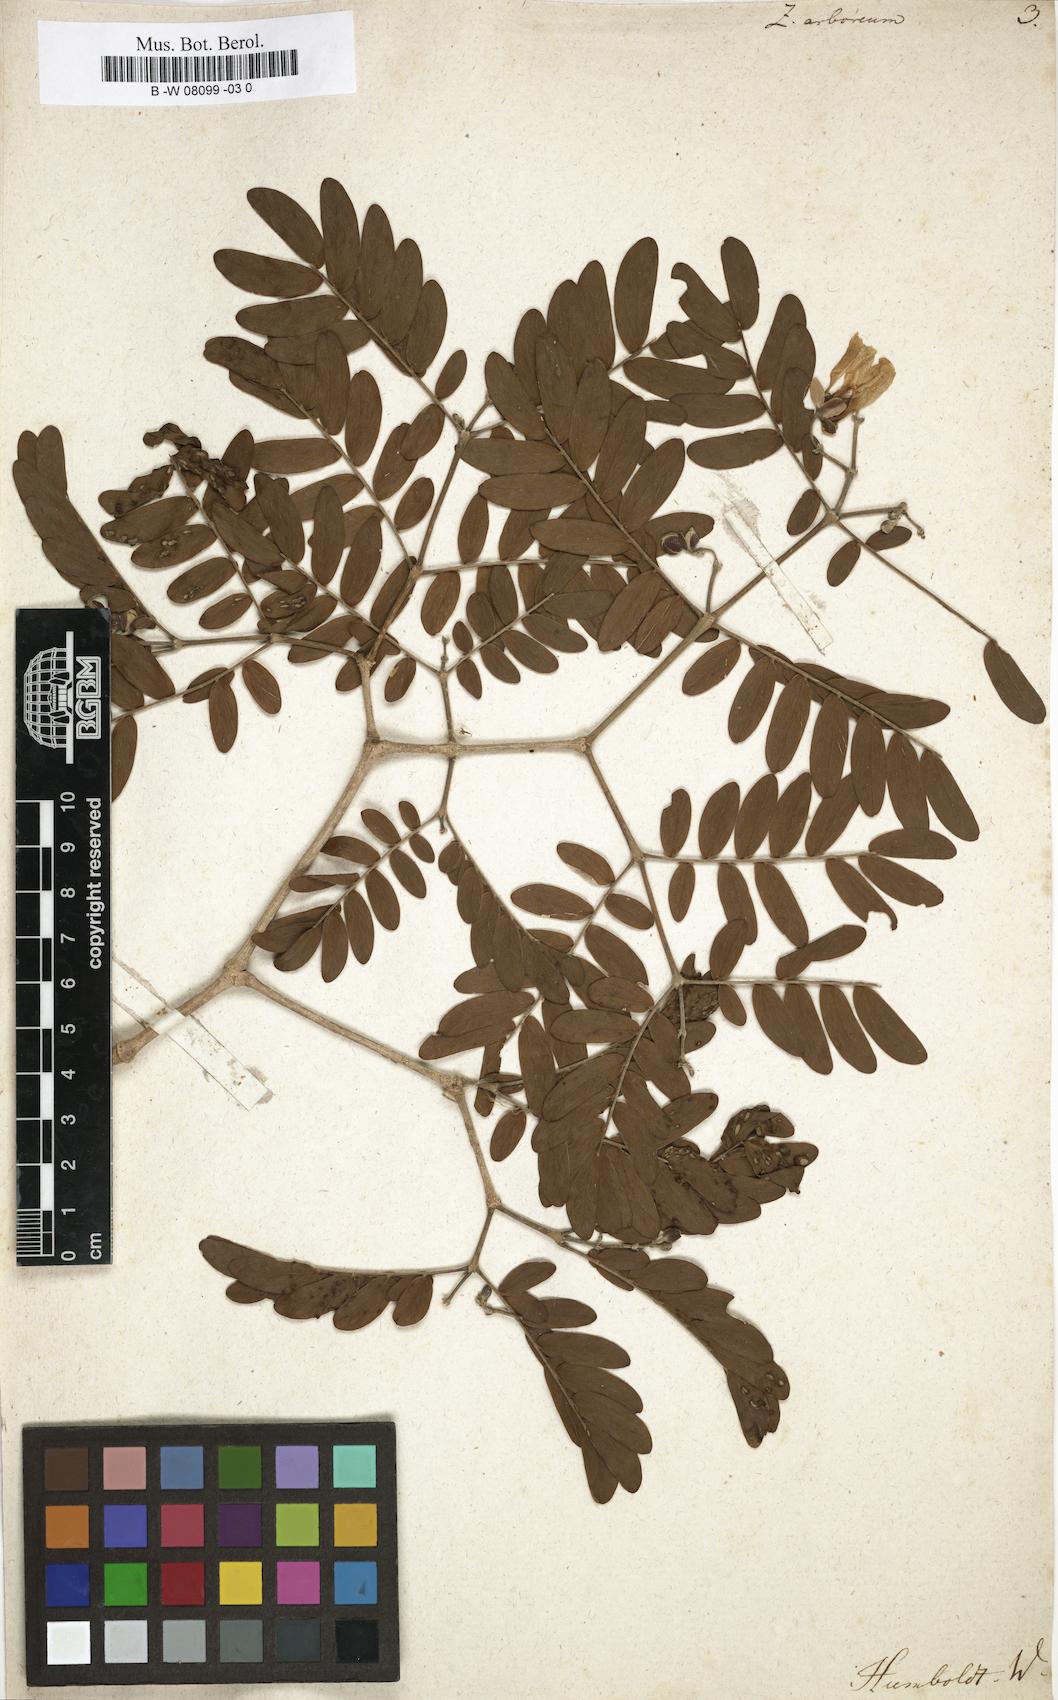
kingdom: Plantae
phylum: Tracheophyta
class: Magnoliopsida
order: Zygophyllales
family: Zygophyllaceae
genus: Gonopterodendron
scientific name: Gonopterodendron arboreum
